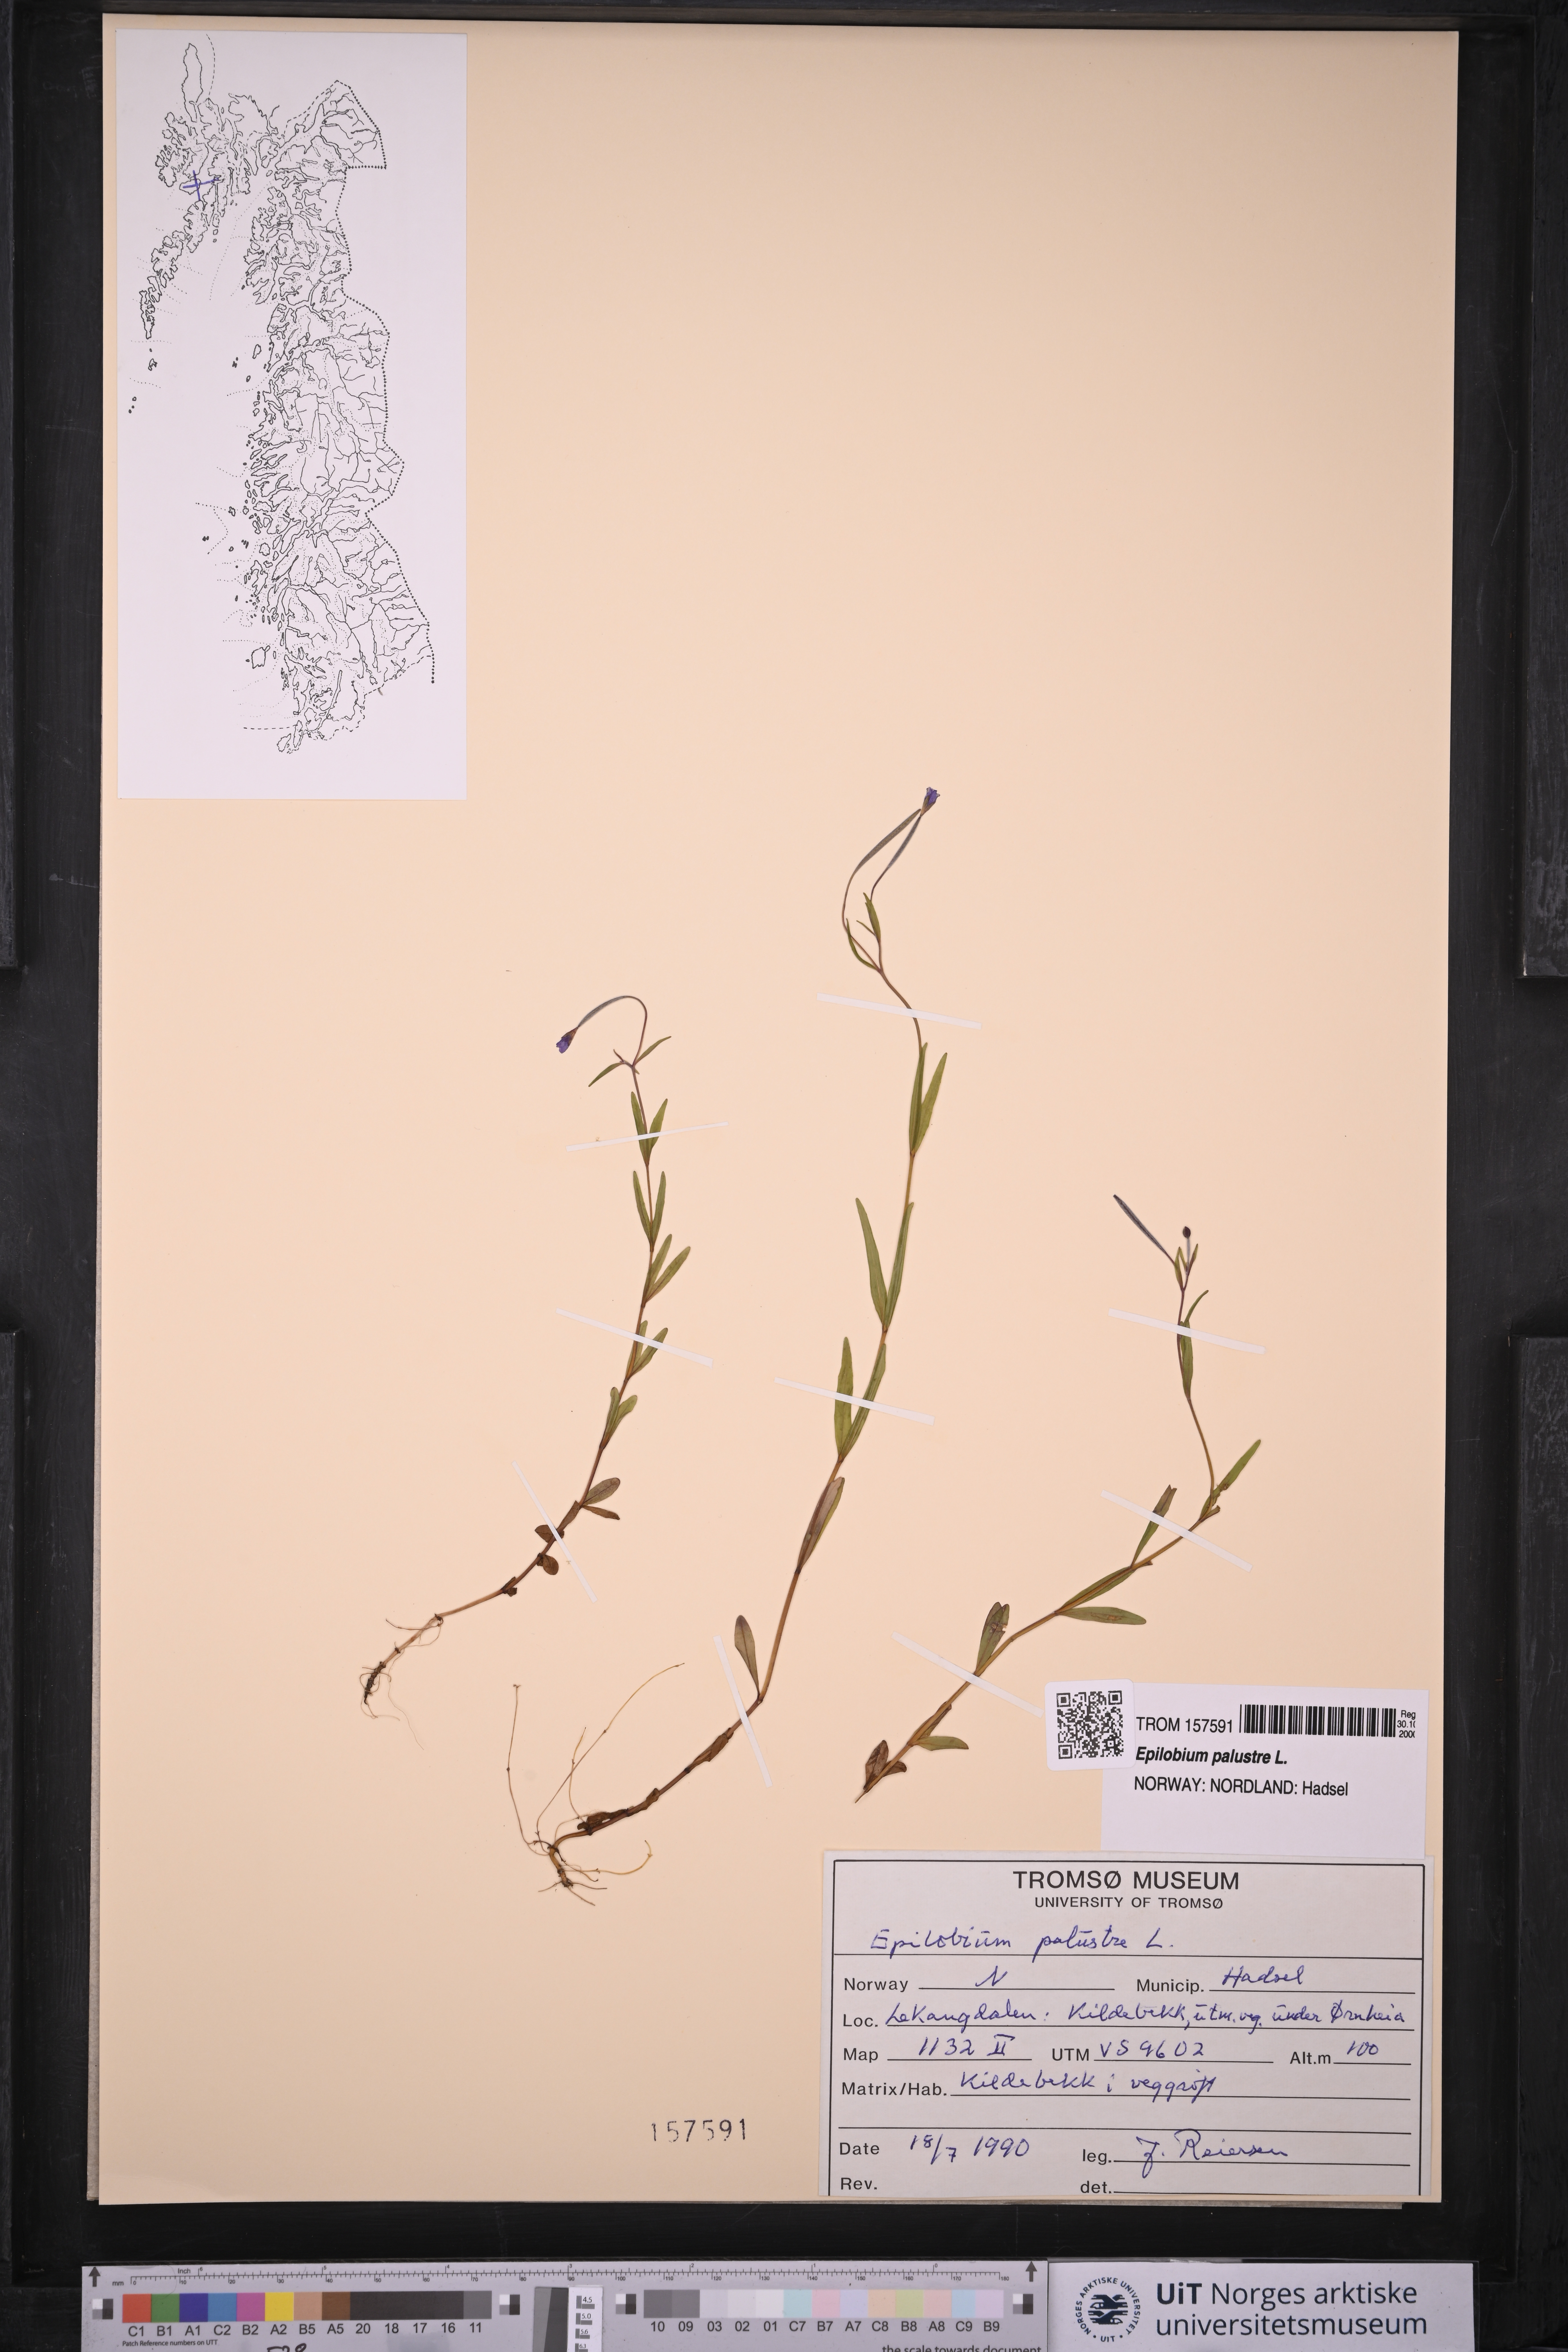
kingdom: Plantae
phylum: Tracheophyta
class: Magnoliopsida
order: Myrtales
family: Onagraceae
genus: Epilobium
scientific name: Epilobium palustre
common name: Marsh willowherb
